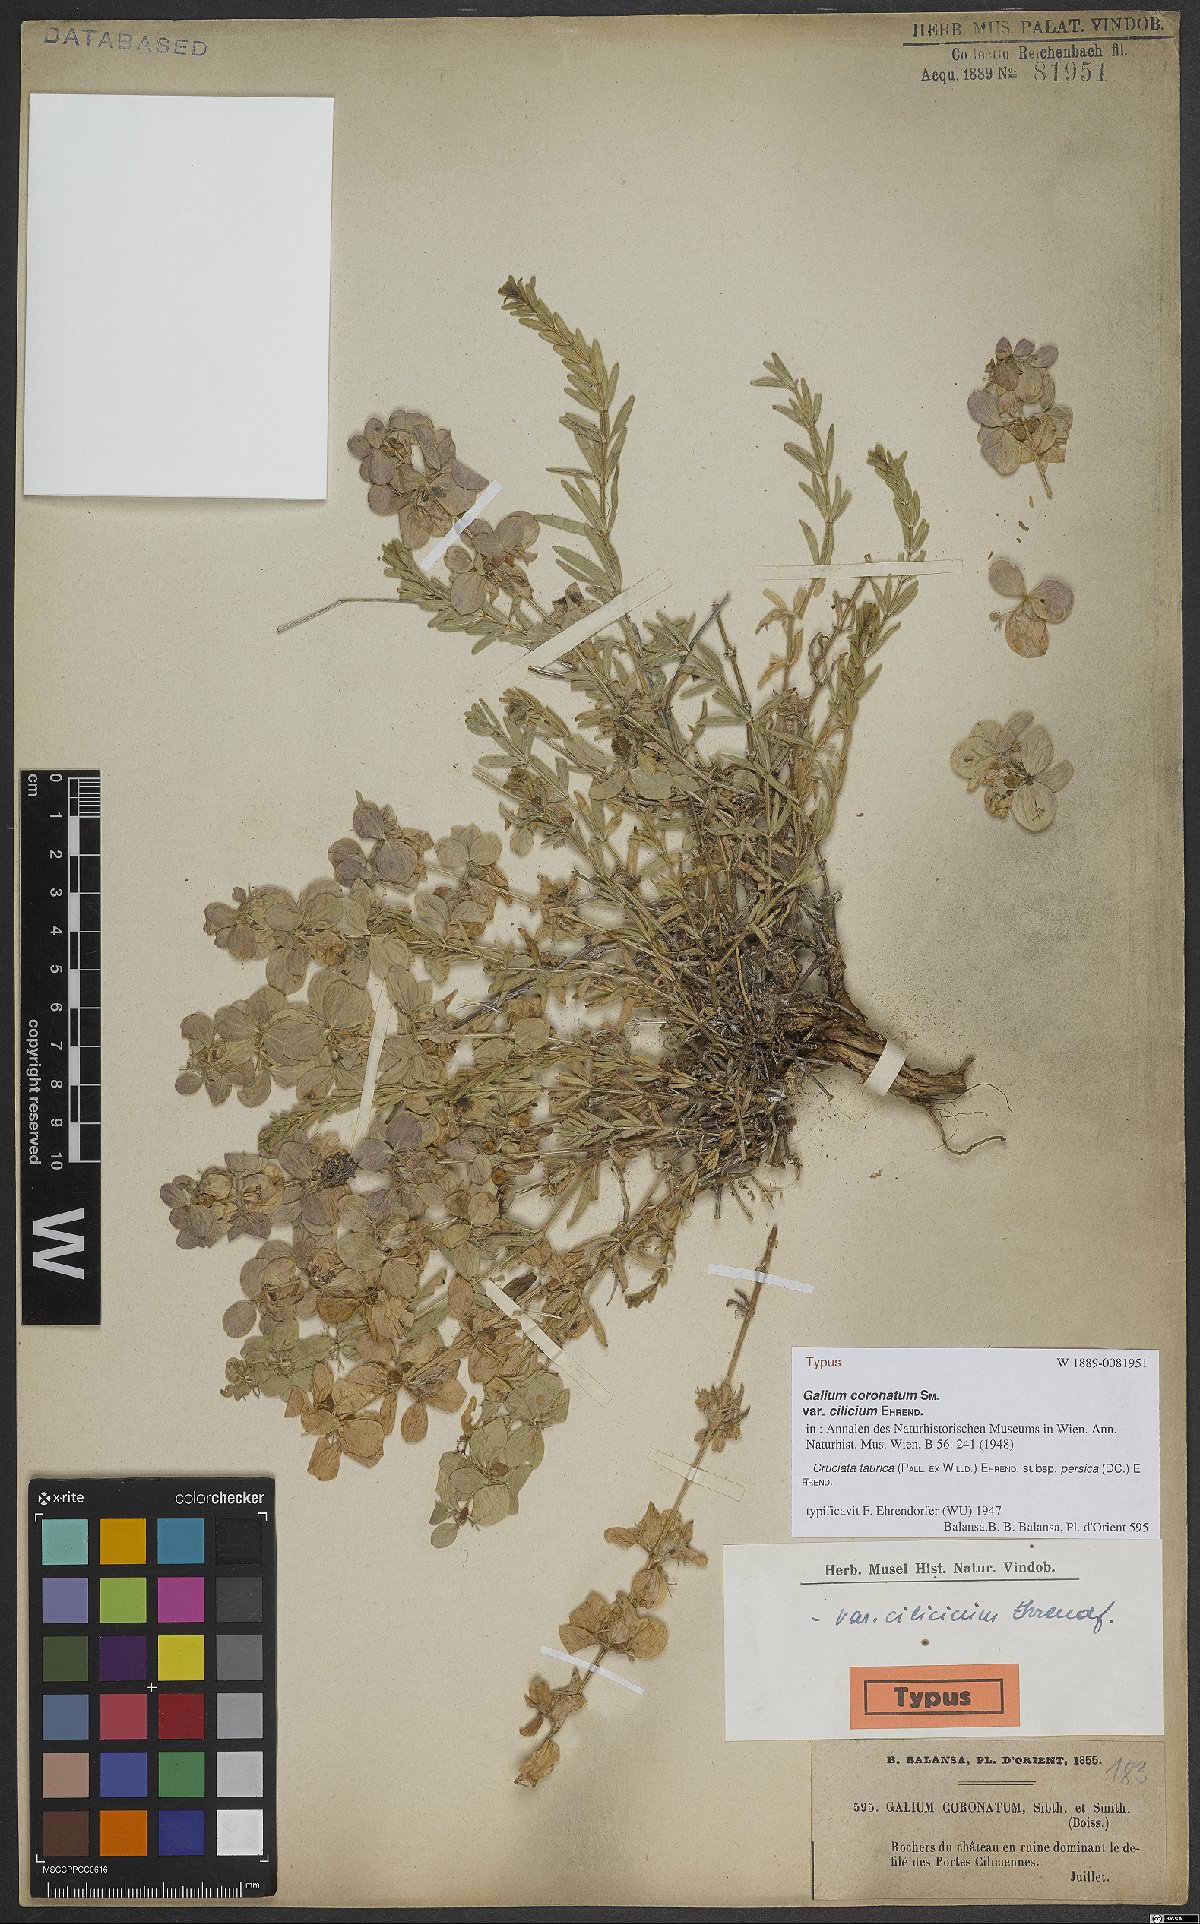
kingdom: Plantae
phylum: Tracheophyta
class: Magnoliopsida
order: Gentianales
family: Rubiaceae
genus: Cruciata
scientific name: Cruciata taurica
